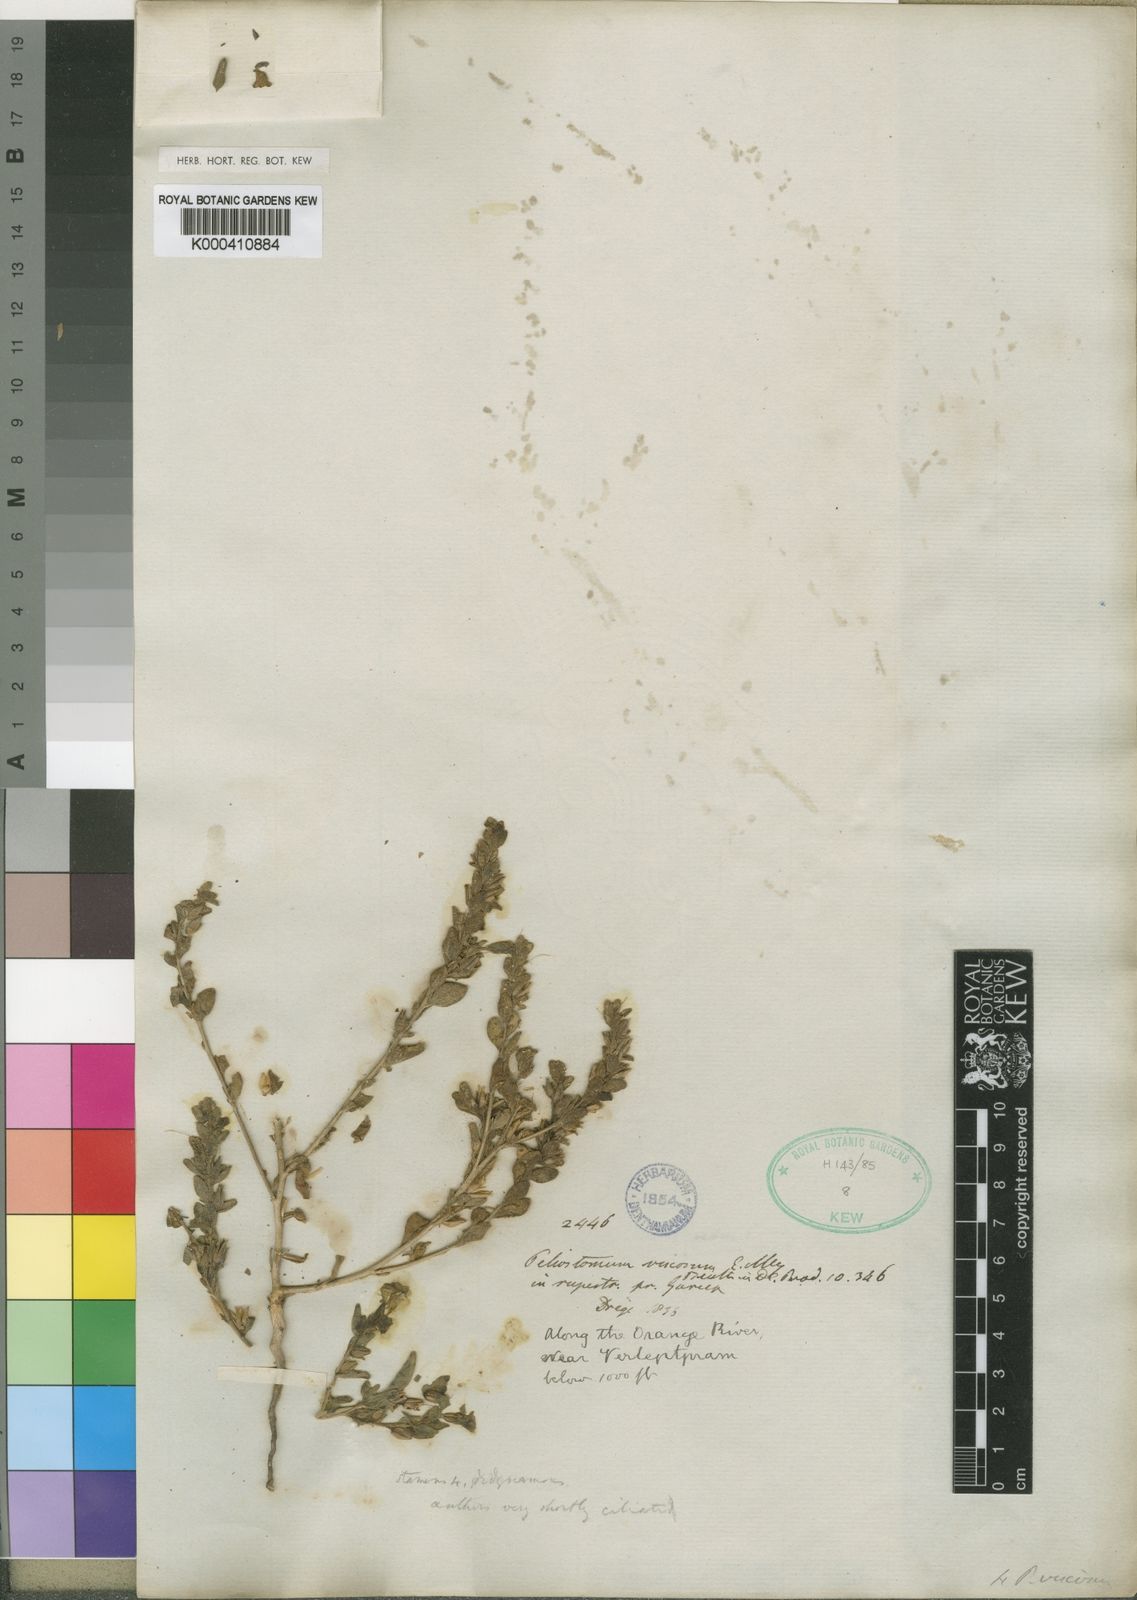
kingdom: Plantae
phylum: Tracheophyta
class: Magnoliopsida
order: Lamiales
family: Scrophulariaceae
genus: Peliostomum
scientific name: Peliostomum viscosum
